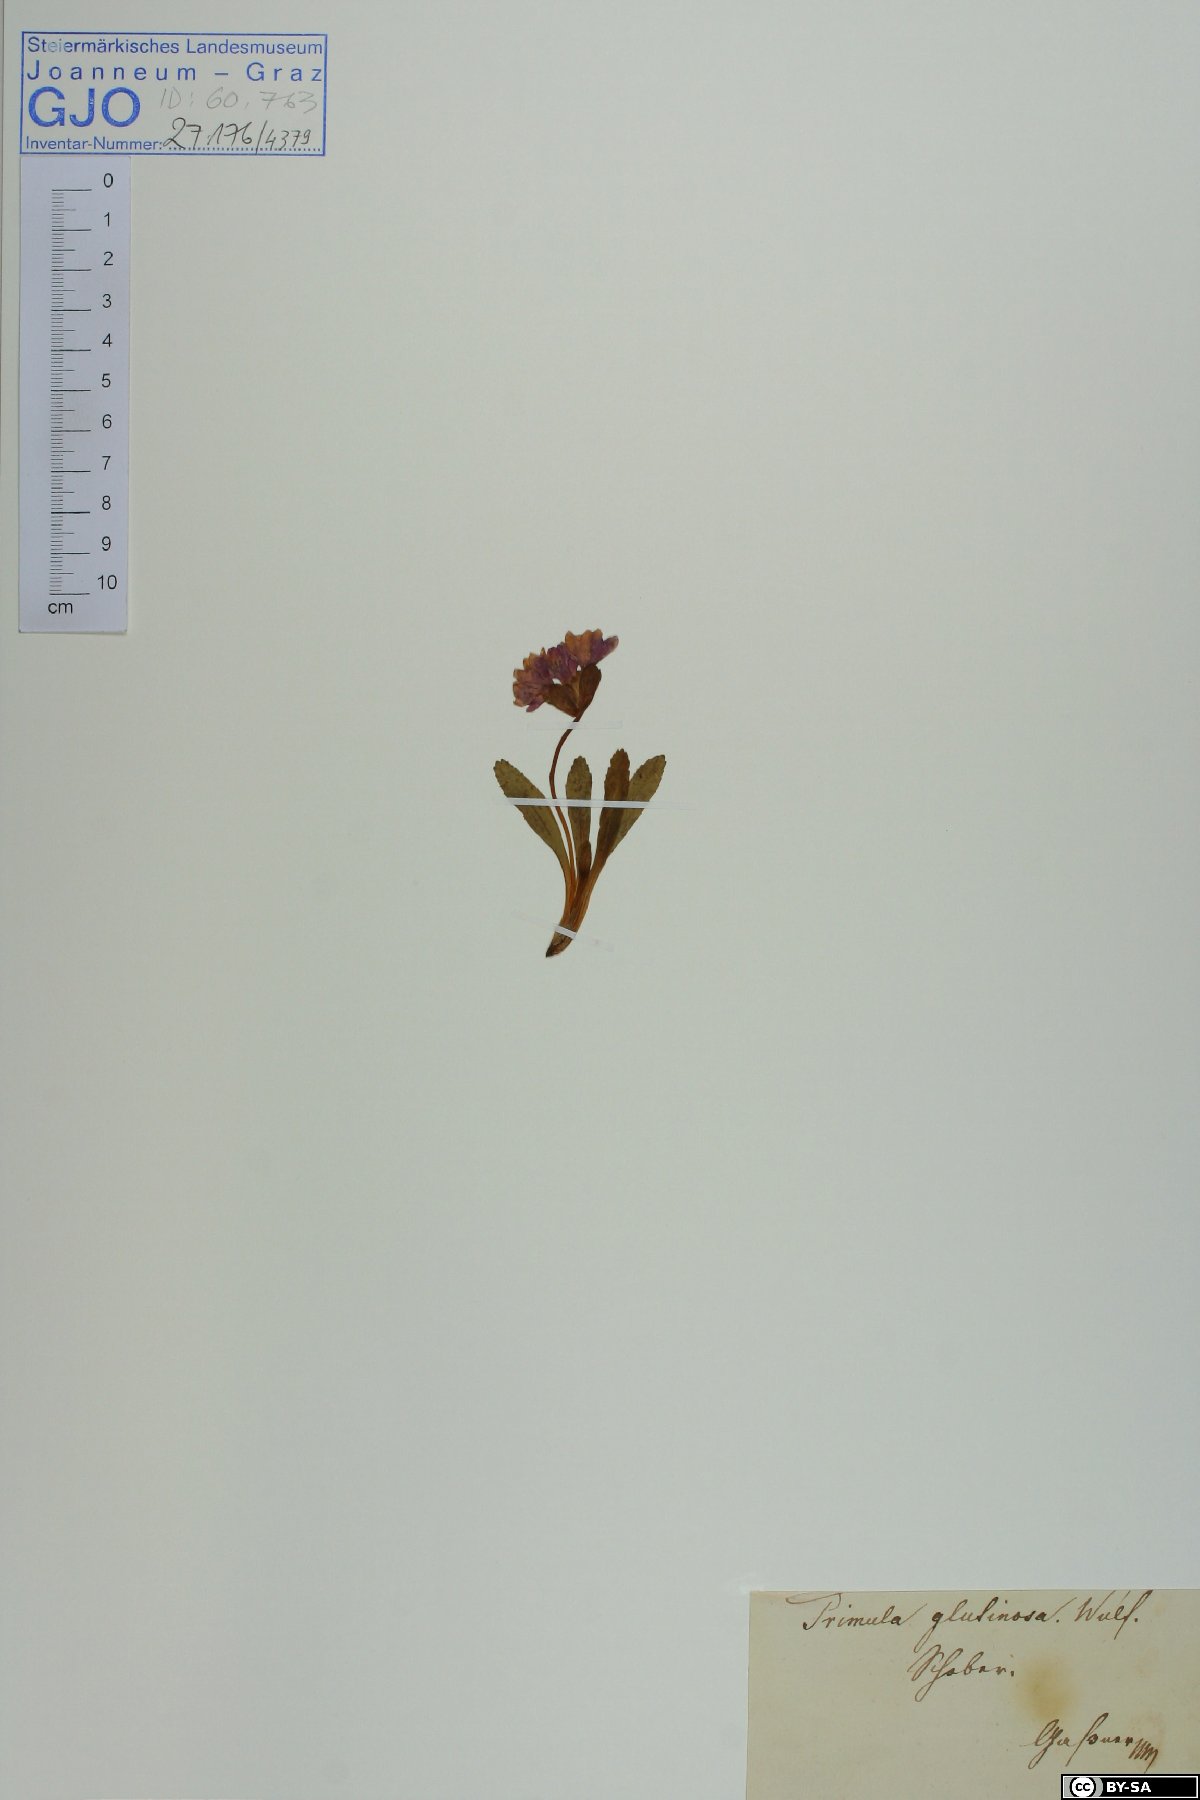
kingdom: Plantae
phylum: Tracheophyta
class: Magnoliopsida
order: Ericales
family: Primulaceae
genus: Primula
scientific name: Primula glutinosa
